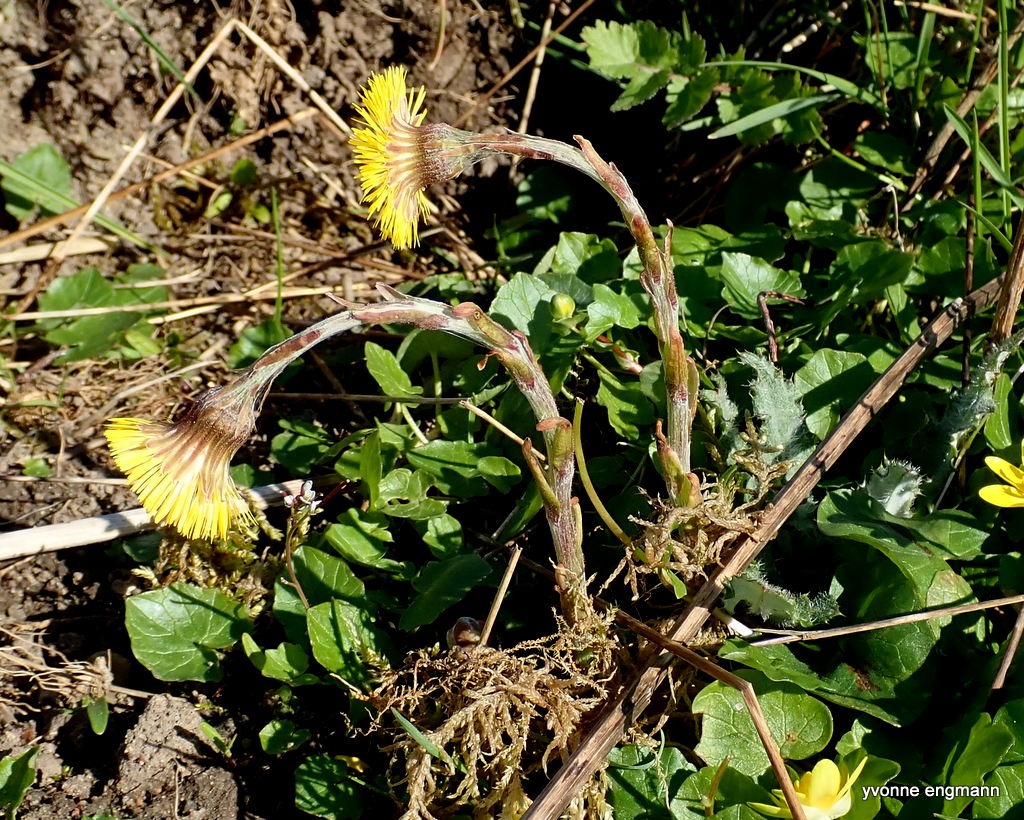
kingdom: Plantae
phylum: Tracheophyta
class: Magnoliopsida
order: Asterales
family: Asteraceae
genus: Tussilago
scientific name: Tussilago farfara
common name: Følfod
